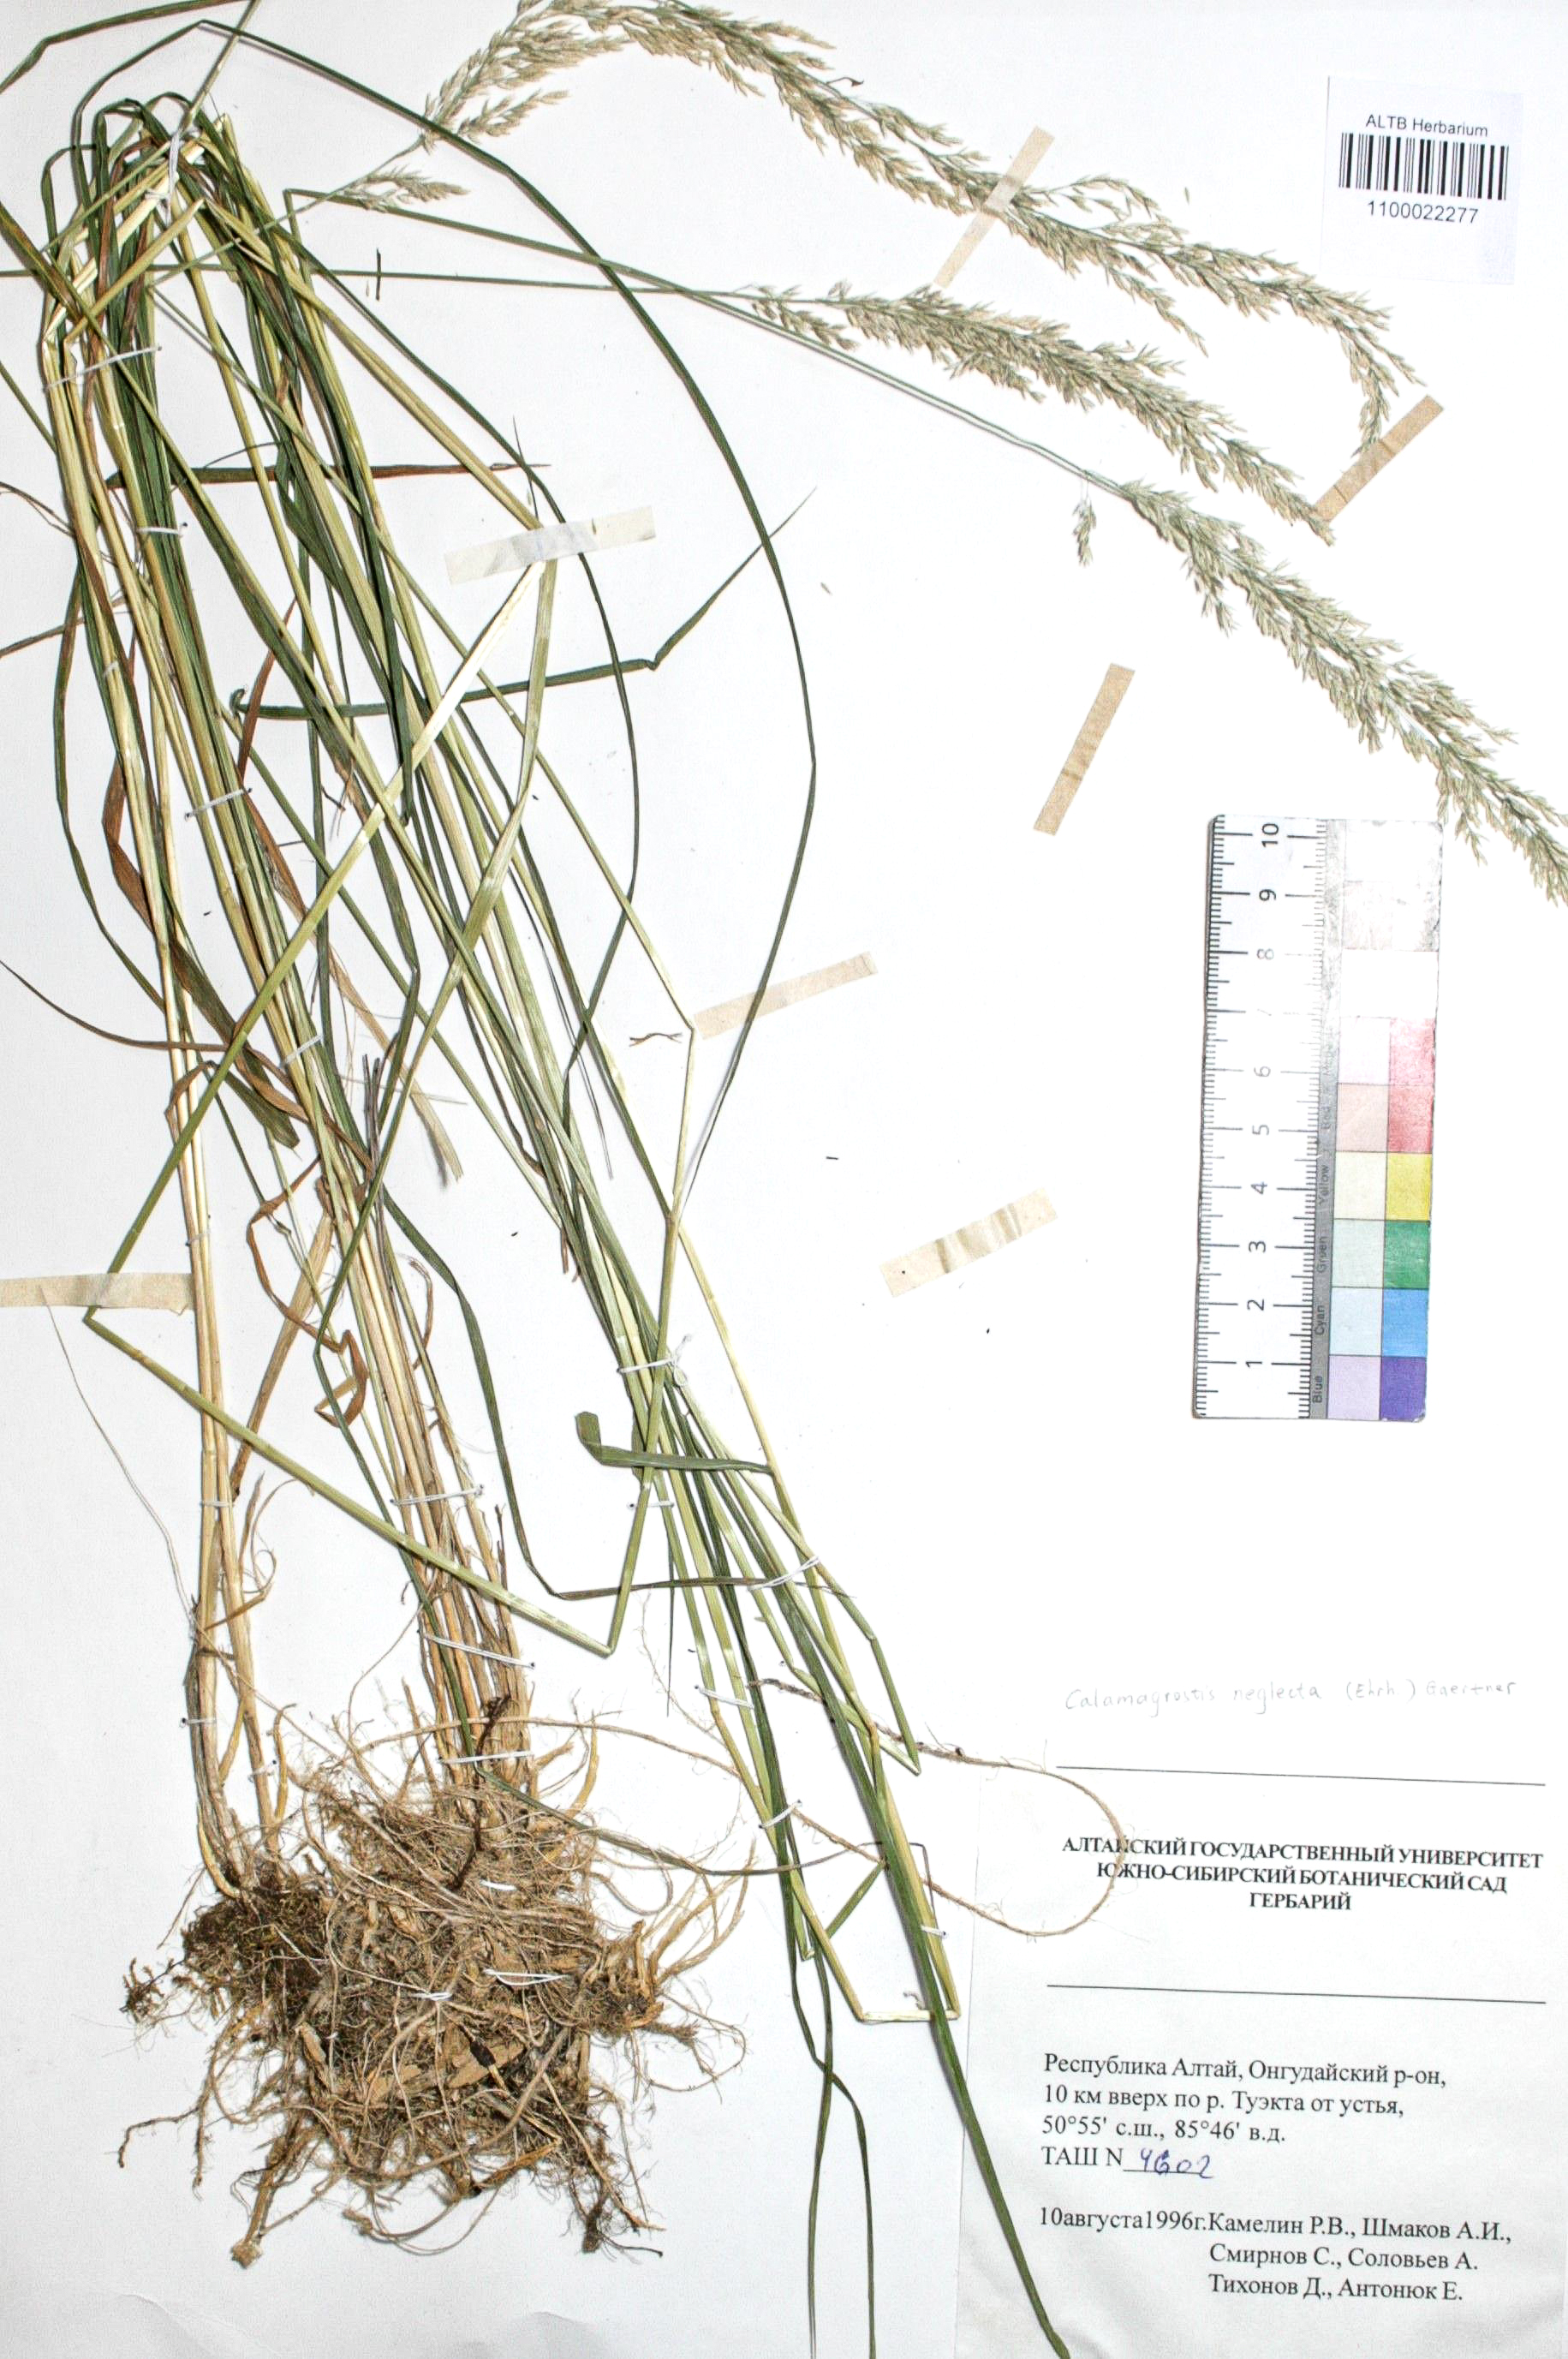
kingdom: Plantae
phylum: Tracheophyta
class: Liliopsida
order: Poales
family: Poaceae
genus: Achnatherum
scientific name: Achnatherum calamagrostis
